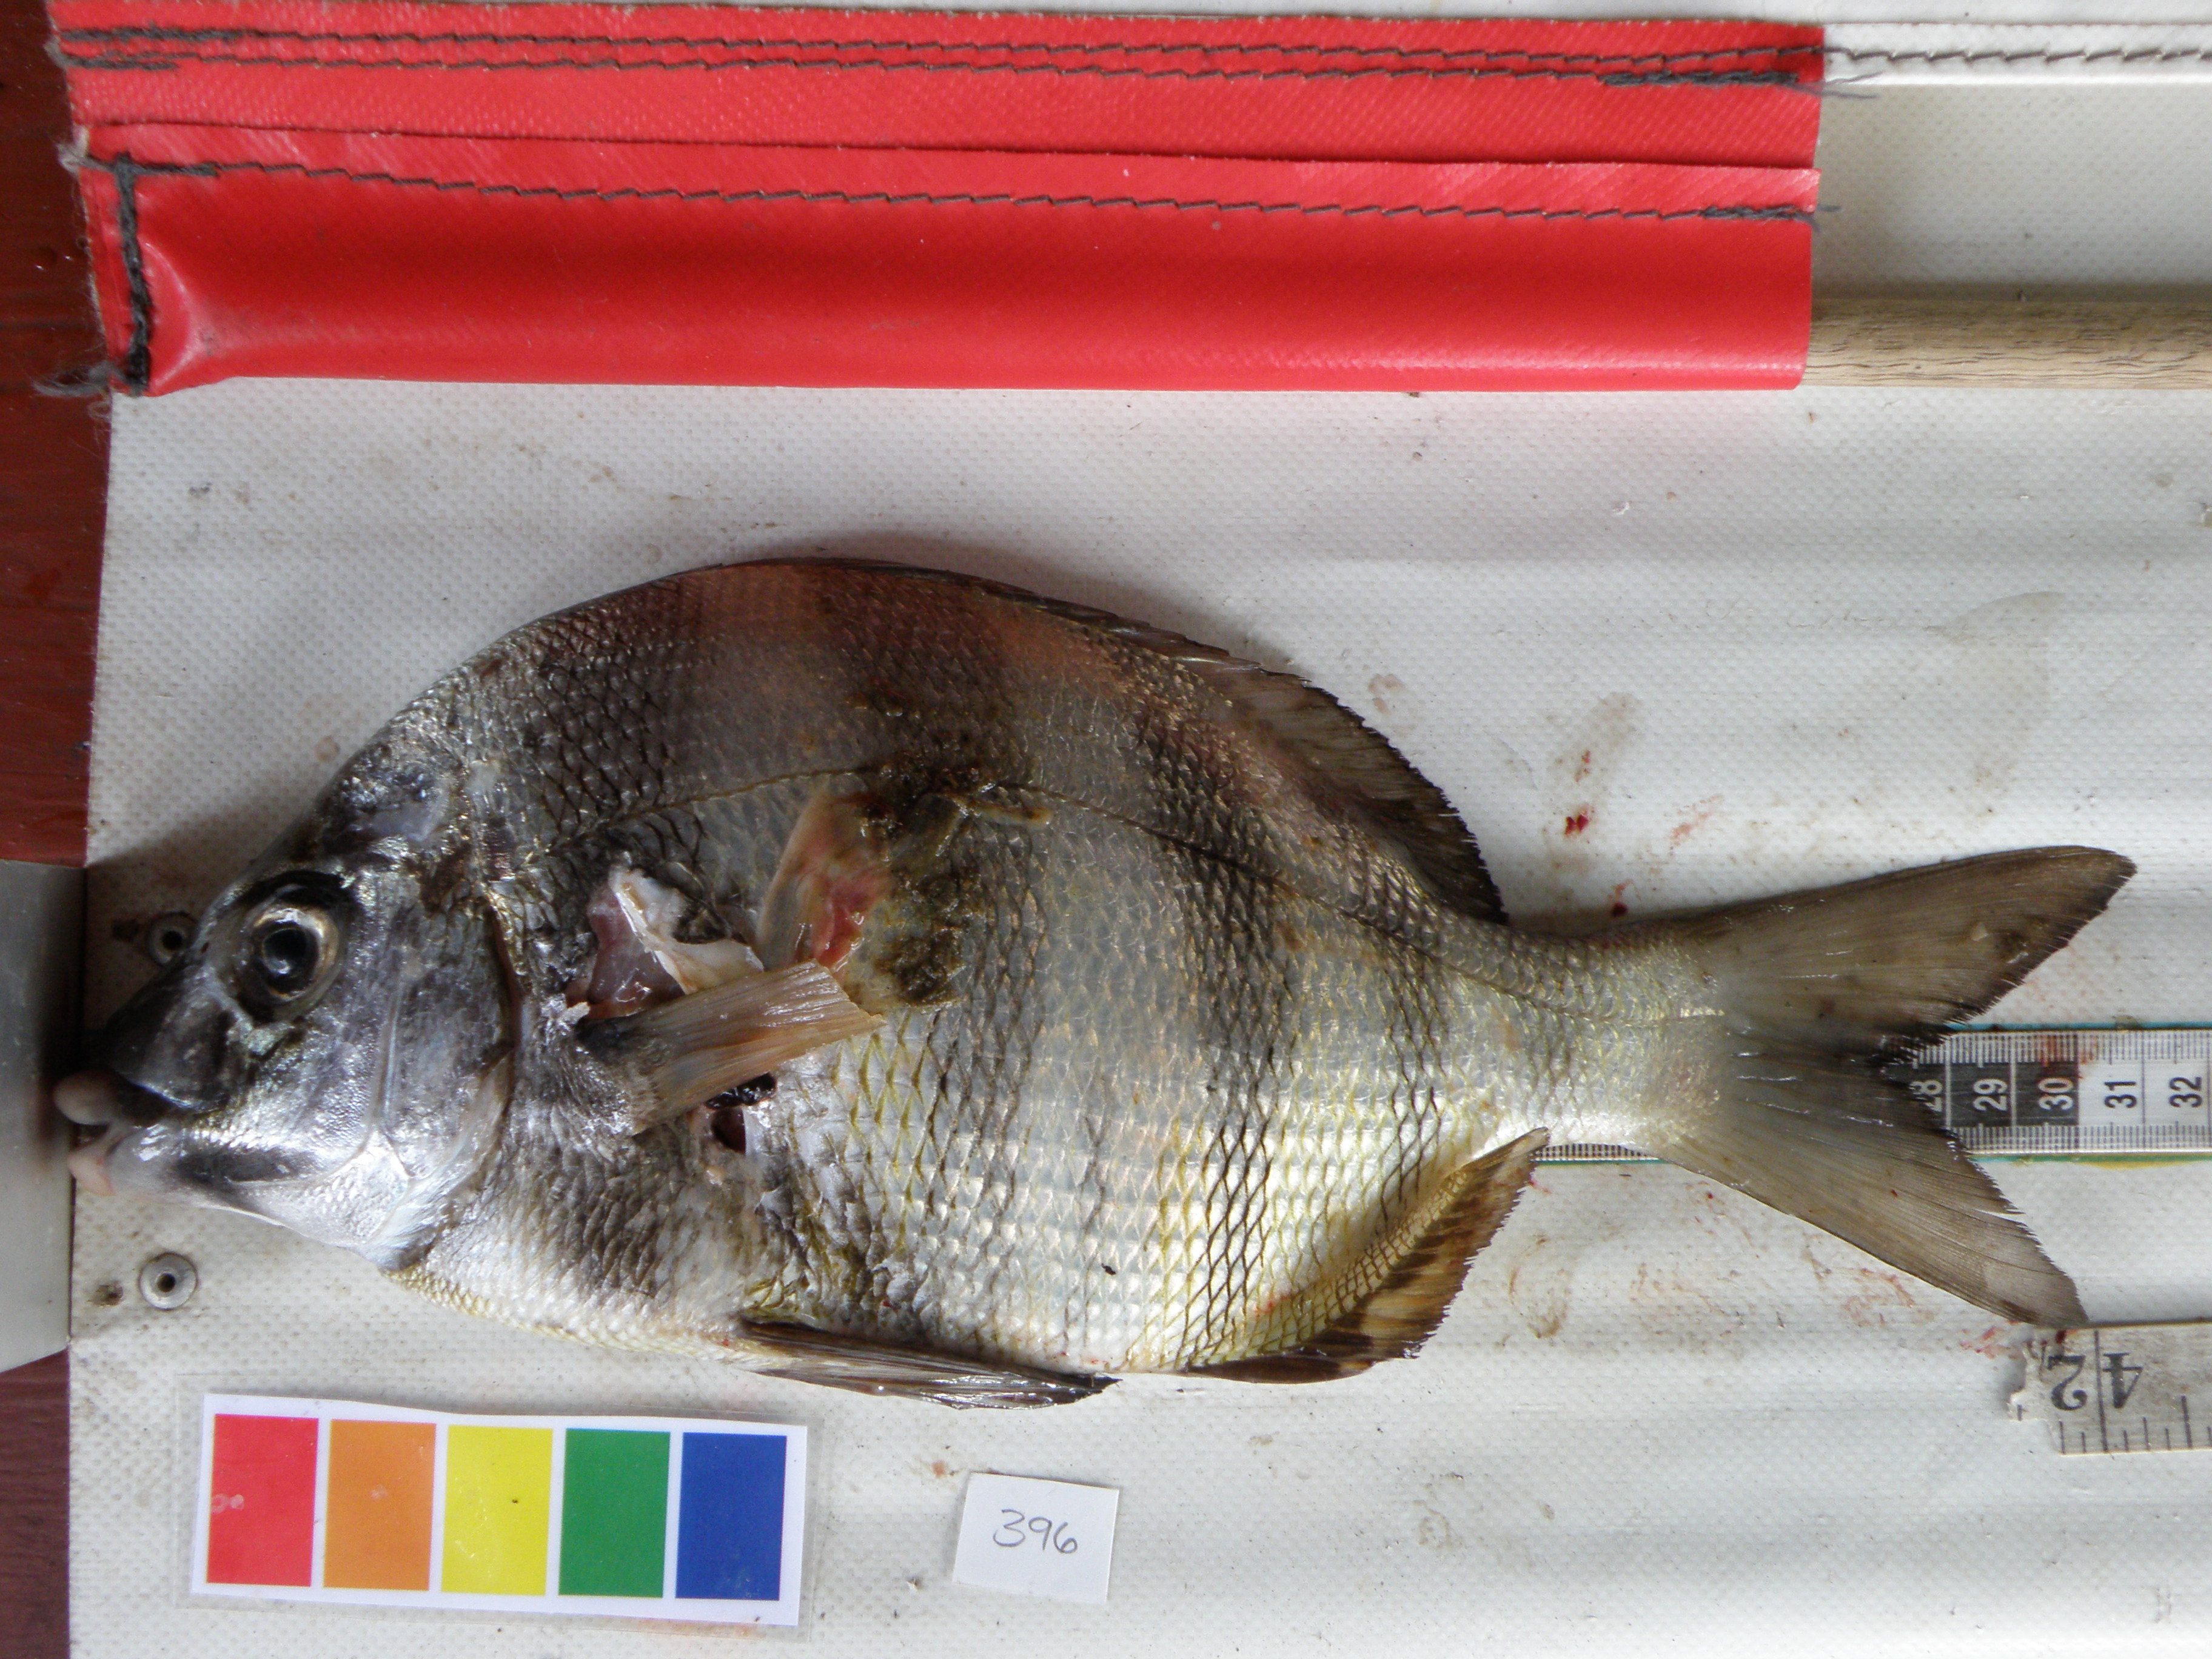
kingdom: Animalia
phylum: Chordata
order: Perciformes
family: Sparidae
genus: Diplodus
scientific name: Diplodus hottentotus
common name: Zebra
